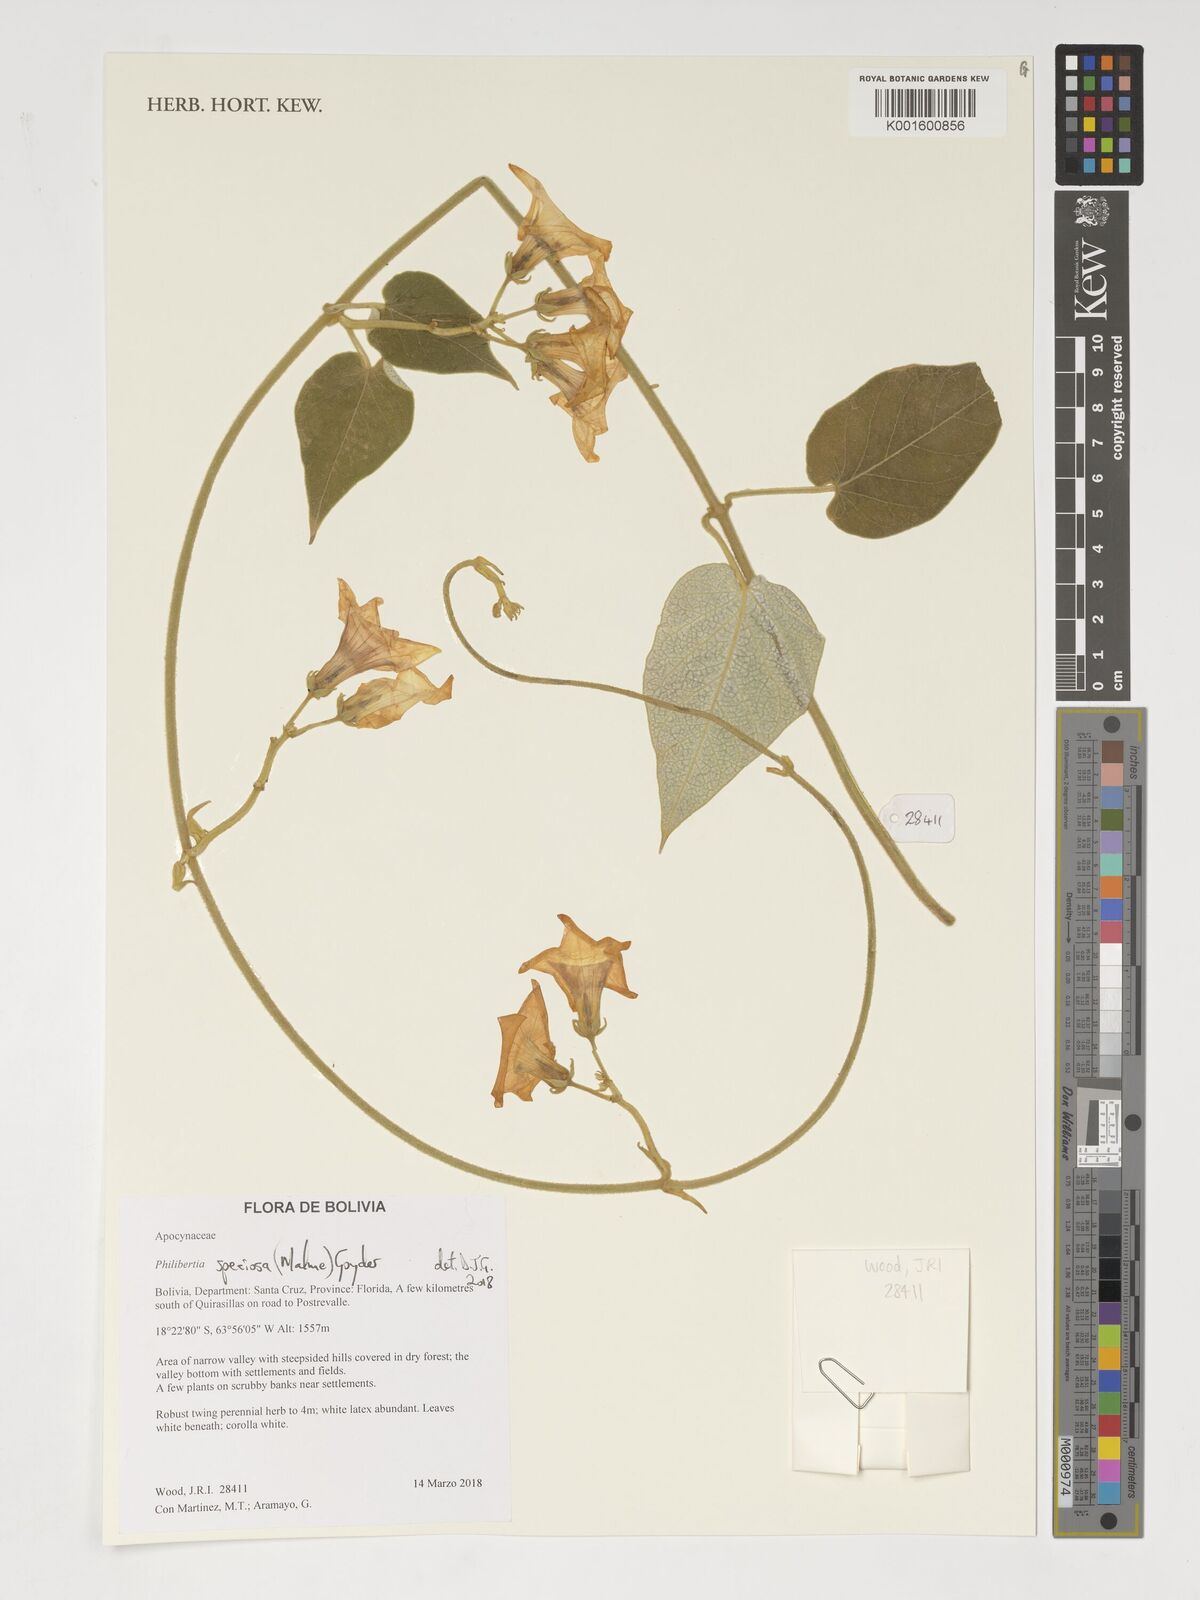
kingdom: Plantae
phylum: Tracheophyta
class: Magnoliopsida
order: Gentianales
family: Apocynaceae
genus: Philibertia
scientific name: Philibertia speciosa
